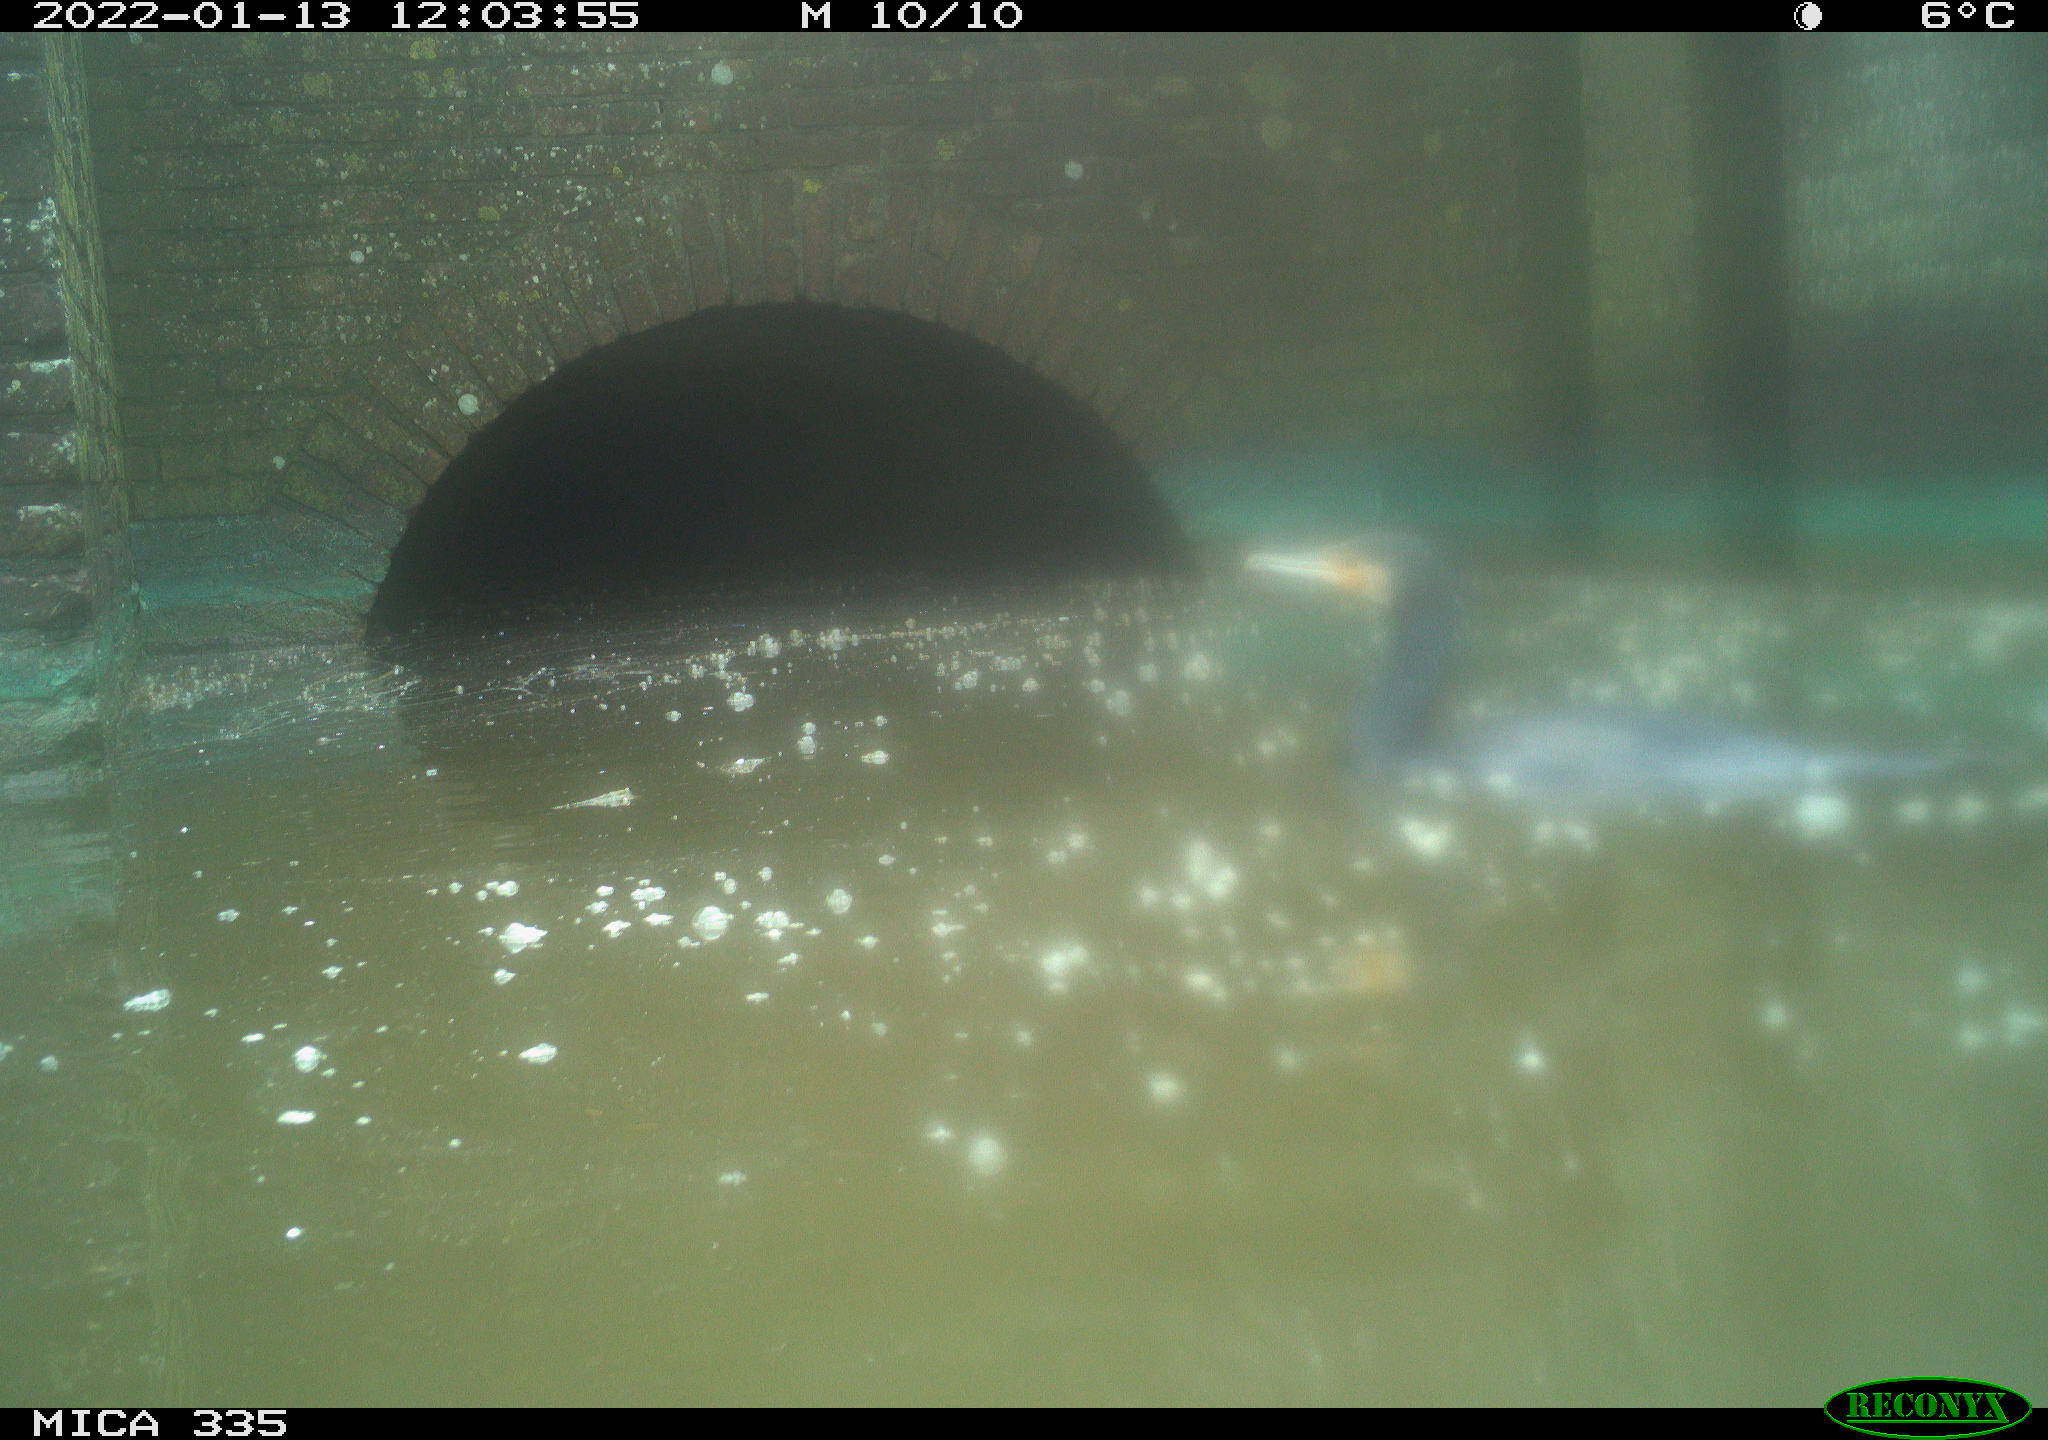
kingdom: Animalia
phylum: Chordata
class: Aves
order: Suliformes
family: Phalacrocoracidae
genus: Phalacrocorax
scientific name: Phalacrocorax carbo
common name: Great cormorant
